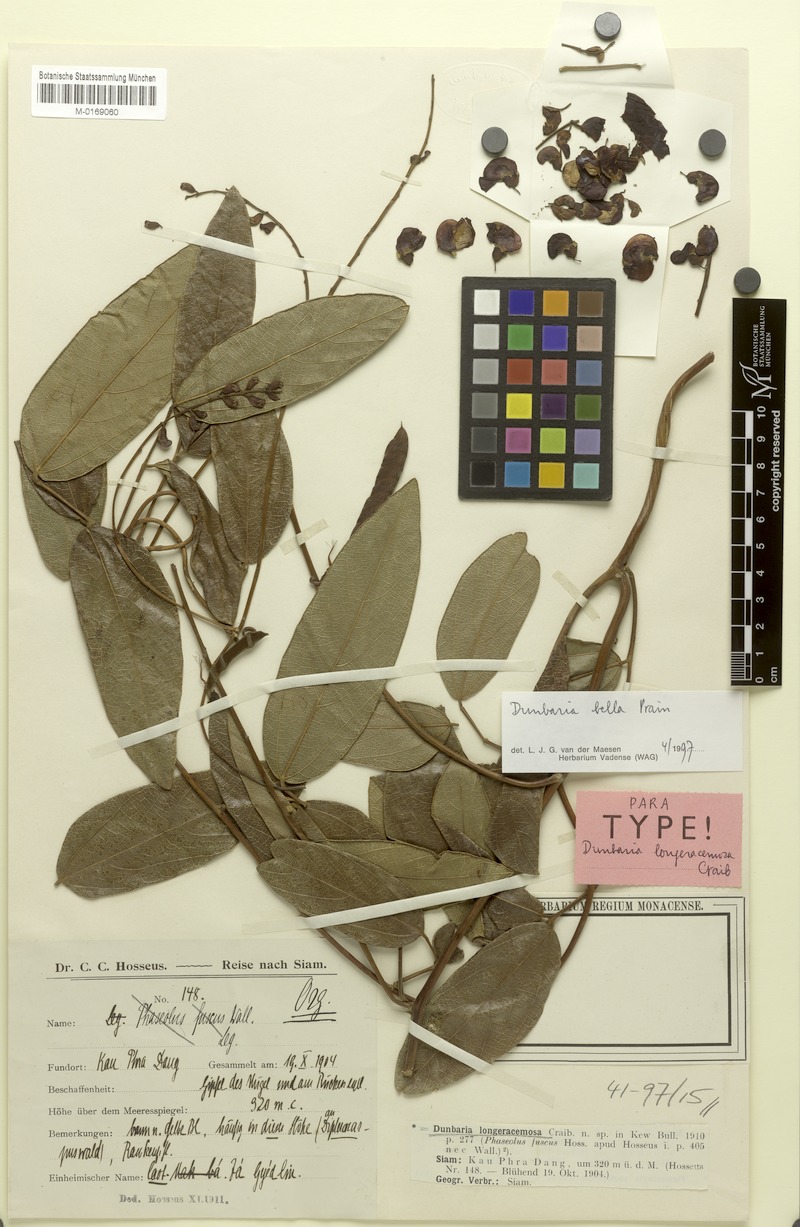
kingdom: Plantae
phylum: Tracheophyta
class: Magnoliopsida
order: Fabales
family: Fabaceae
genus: Dunbaria
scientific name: Dunbaria bella
